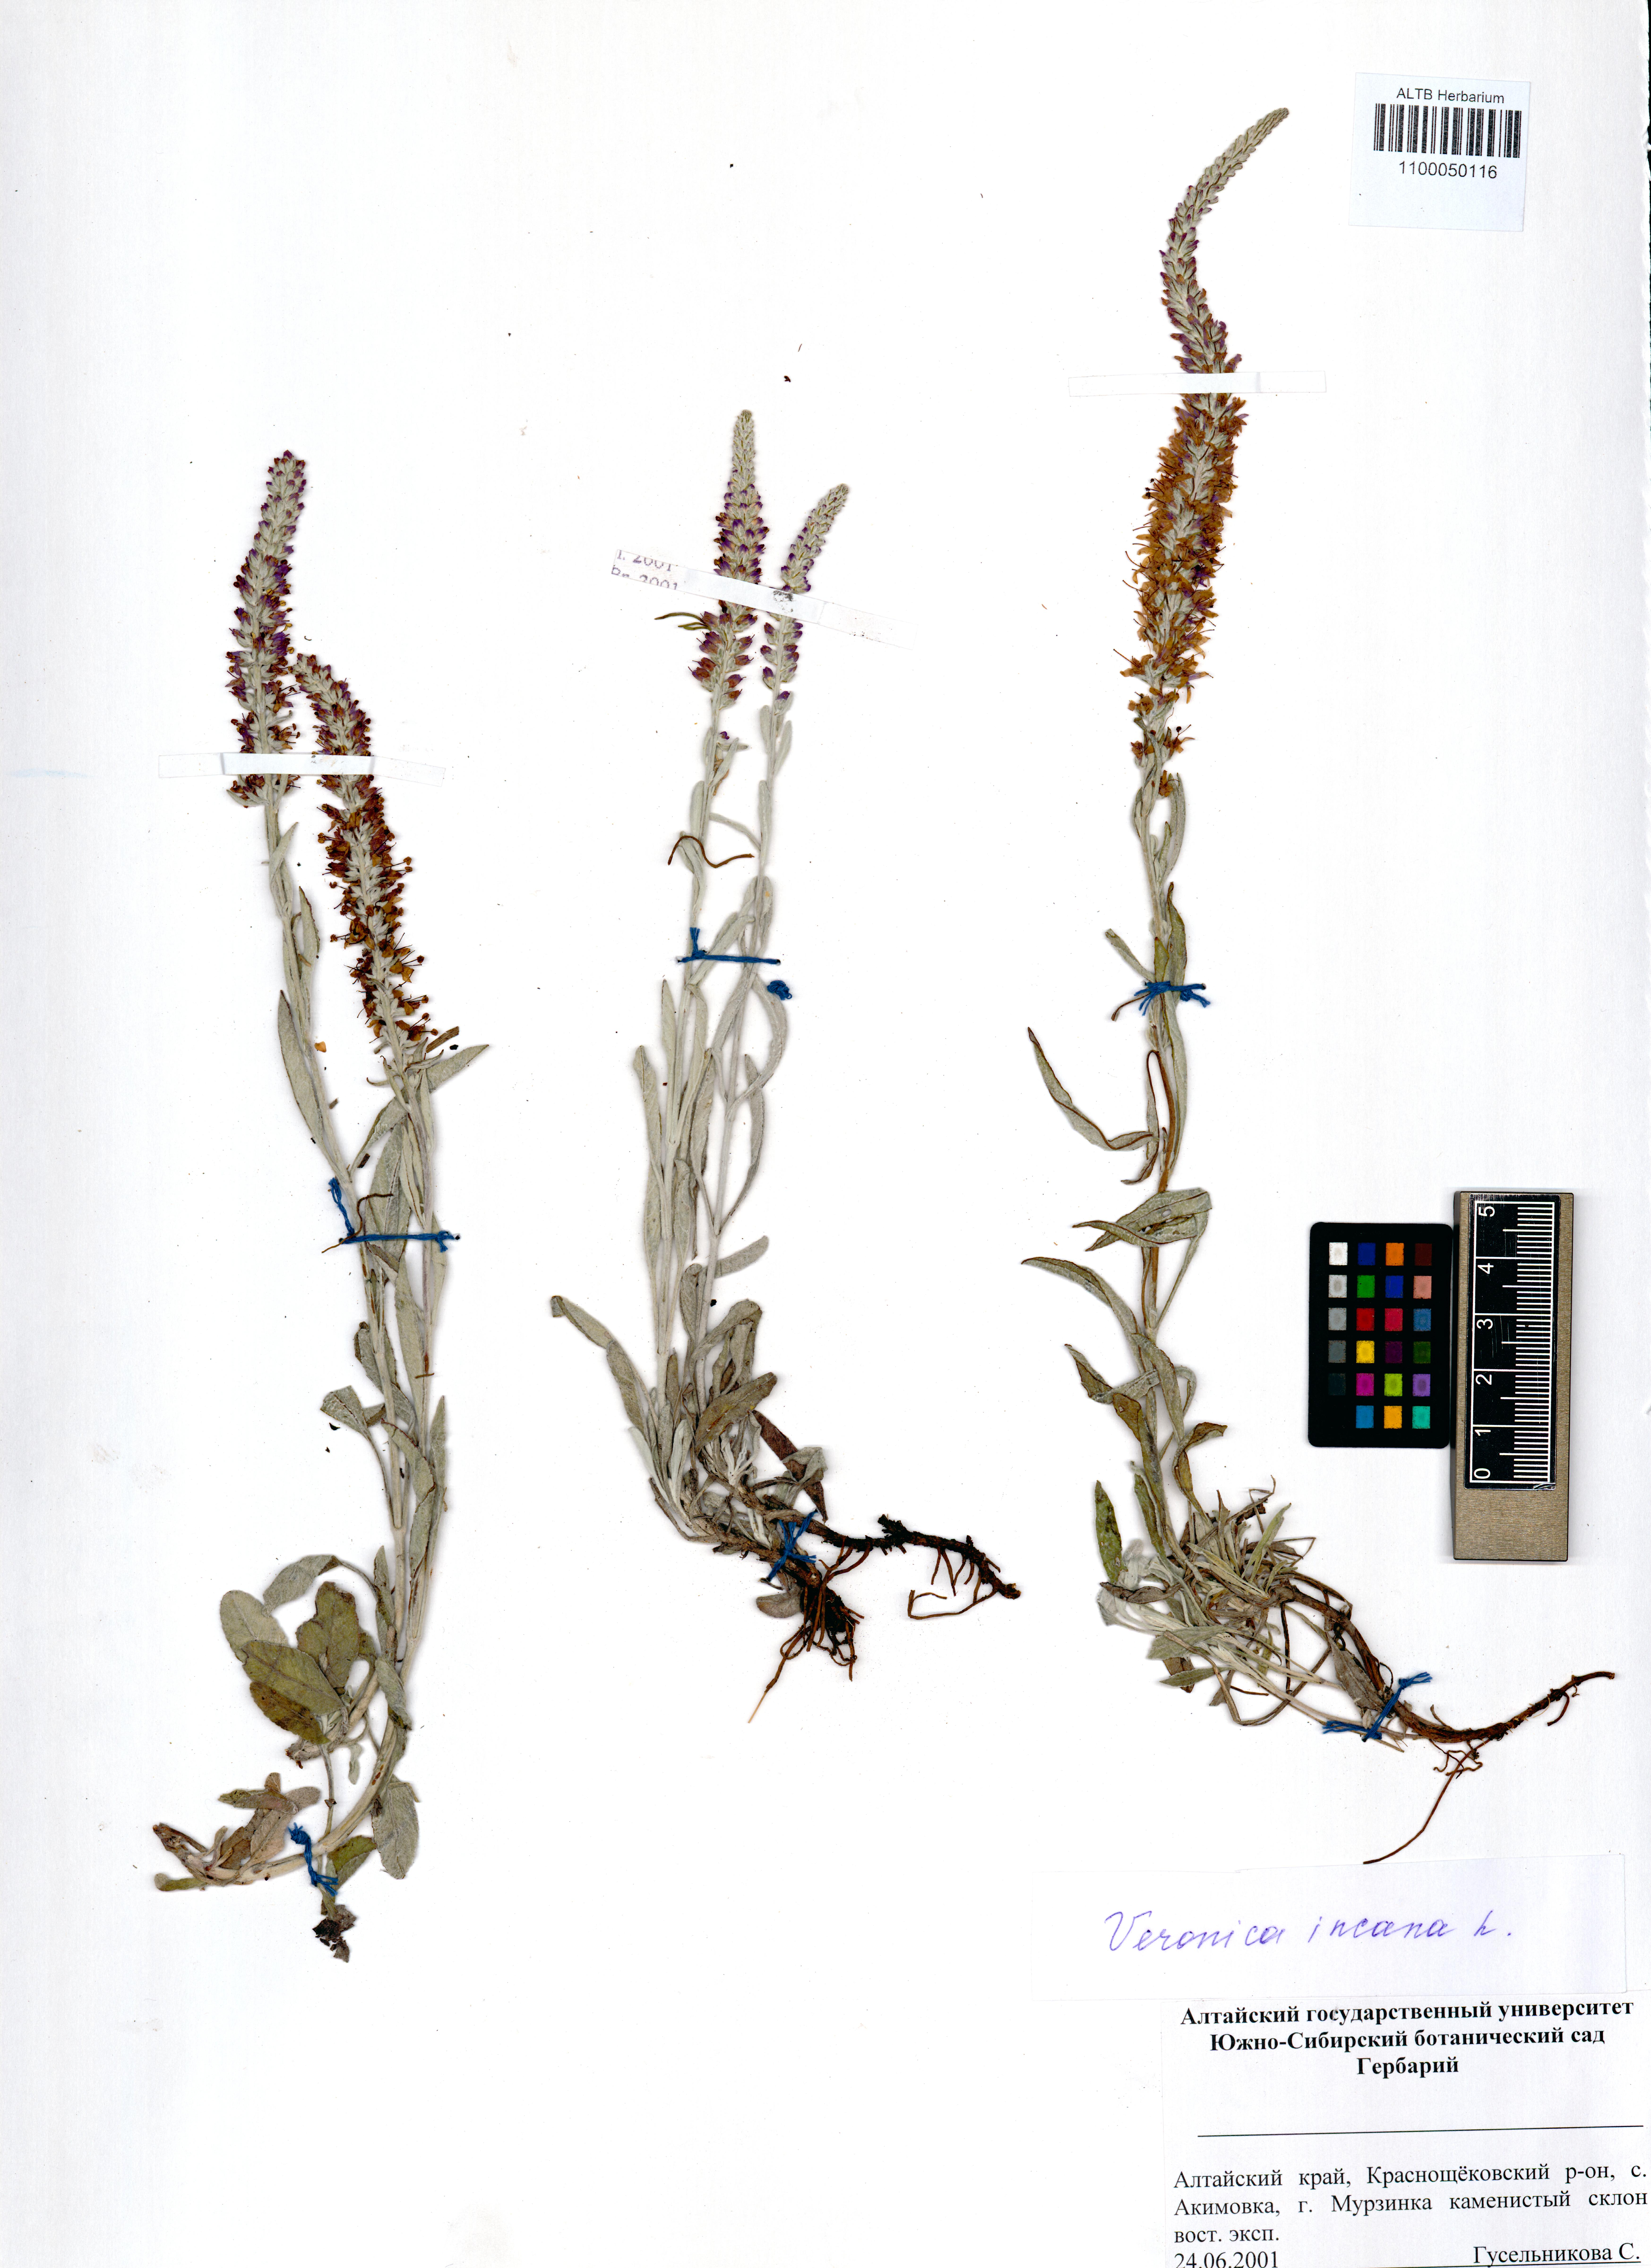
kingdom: Plantae
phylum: Tracheophyta
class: Magnoliopsida
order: Lamiales
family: Plantaginaceae
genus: Veronica
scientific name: Veronica incana
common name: Silver speedwell
